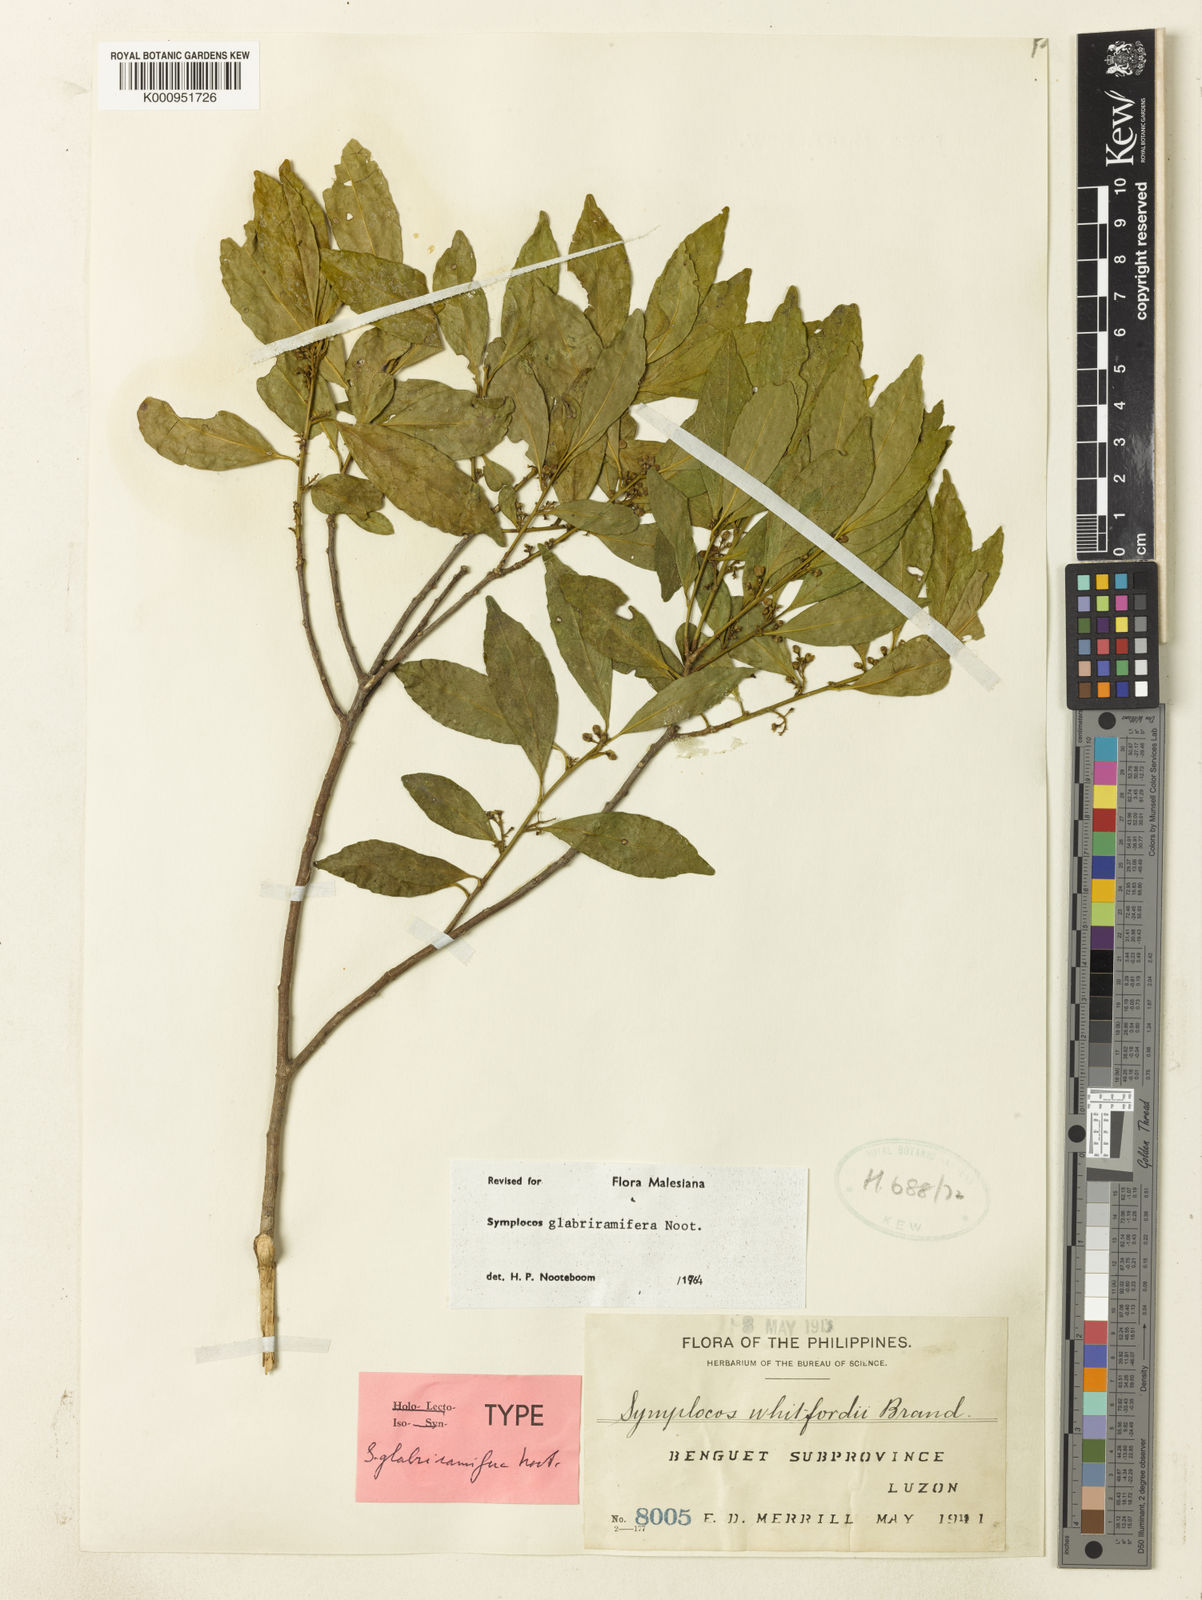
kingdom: Plantae
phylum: Tracheophyta
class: Magnoliopsida
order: Ericales
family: Symplocaceae
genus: Symplocos
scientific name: Symplocos glabriramifera
